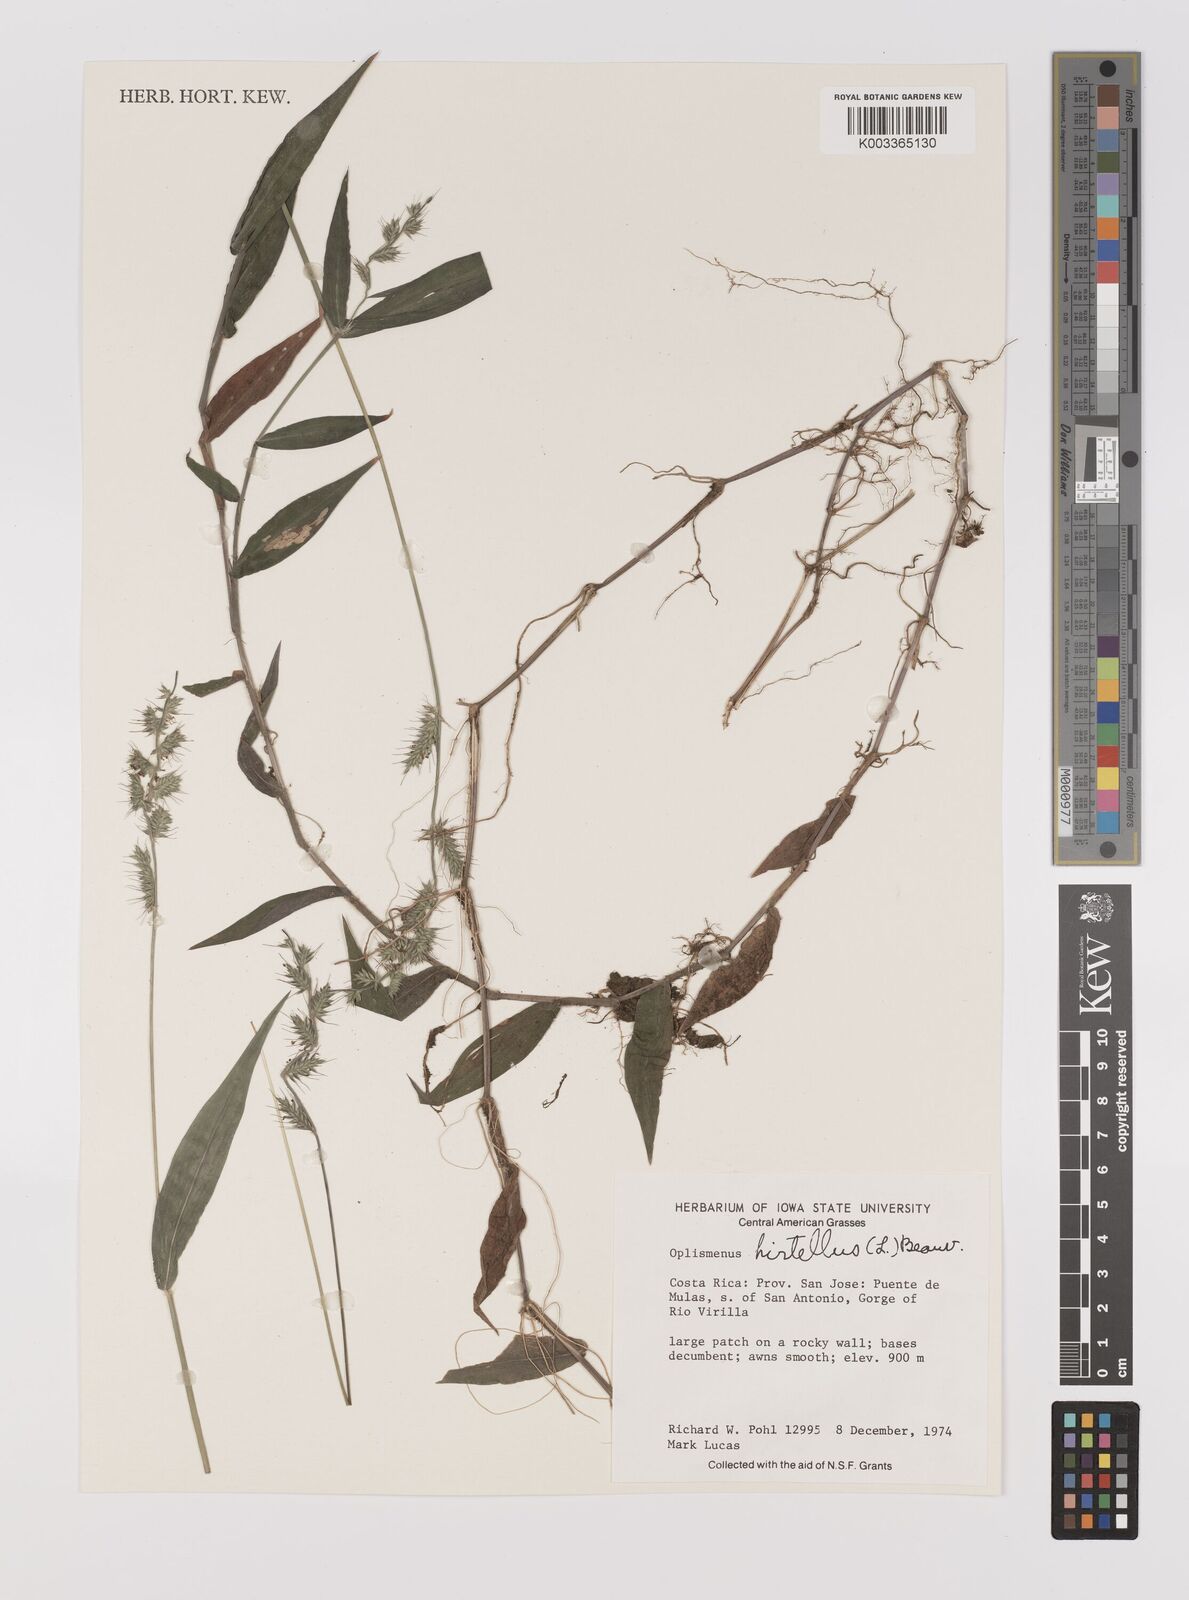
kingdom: Plantae
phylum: Tracheophyta
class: Liliopsida
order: Poales
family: Poaceae
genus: Oplismenus
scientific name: Oplismenus hirtellus
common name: Basketgrass
